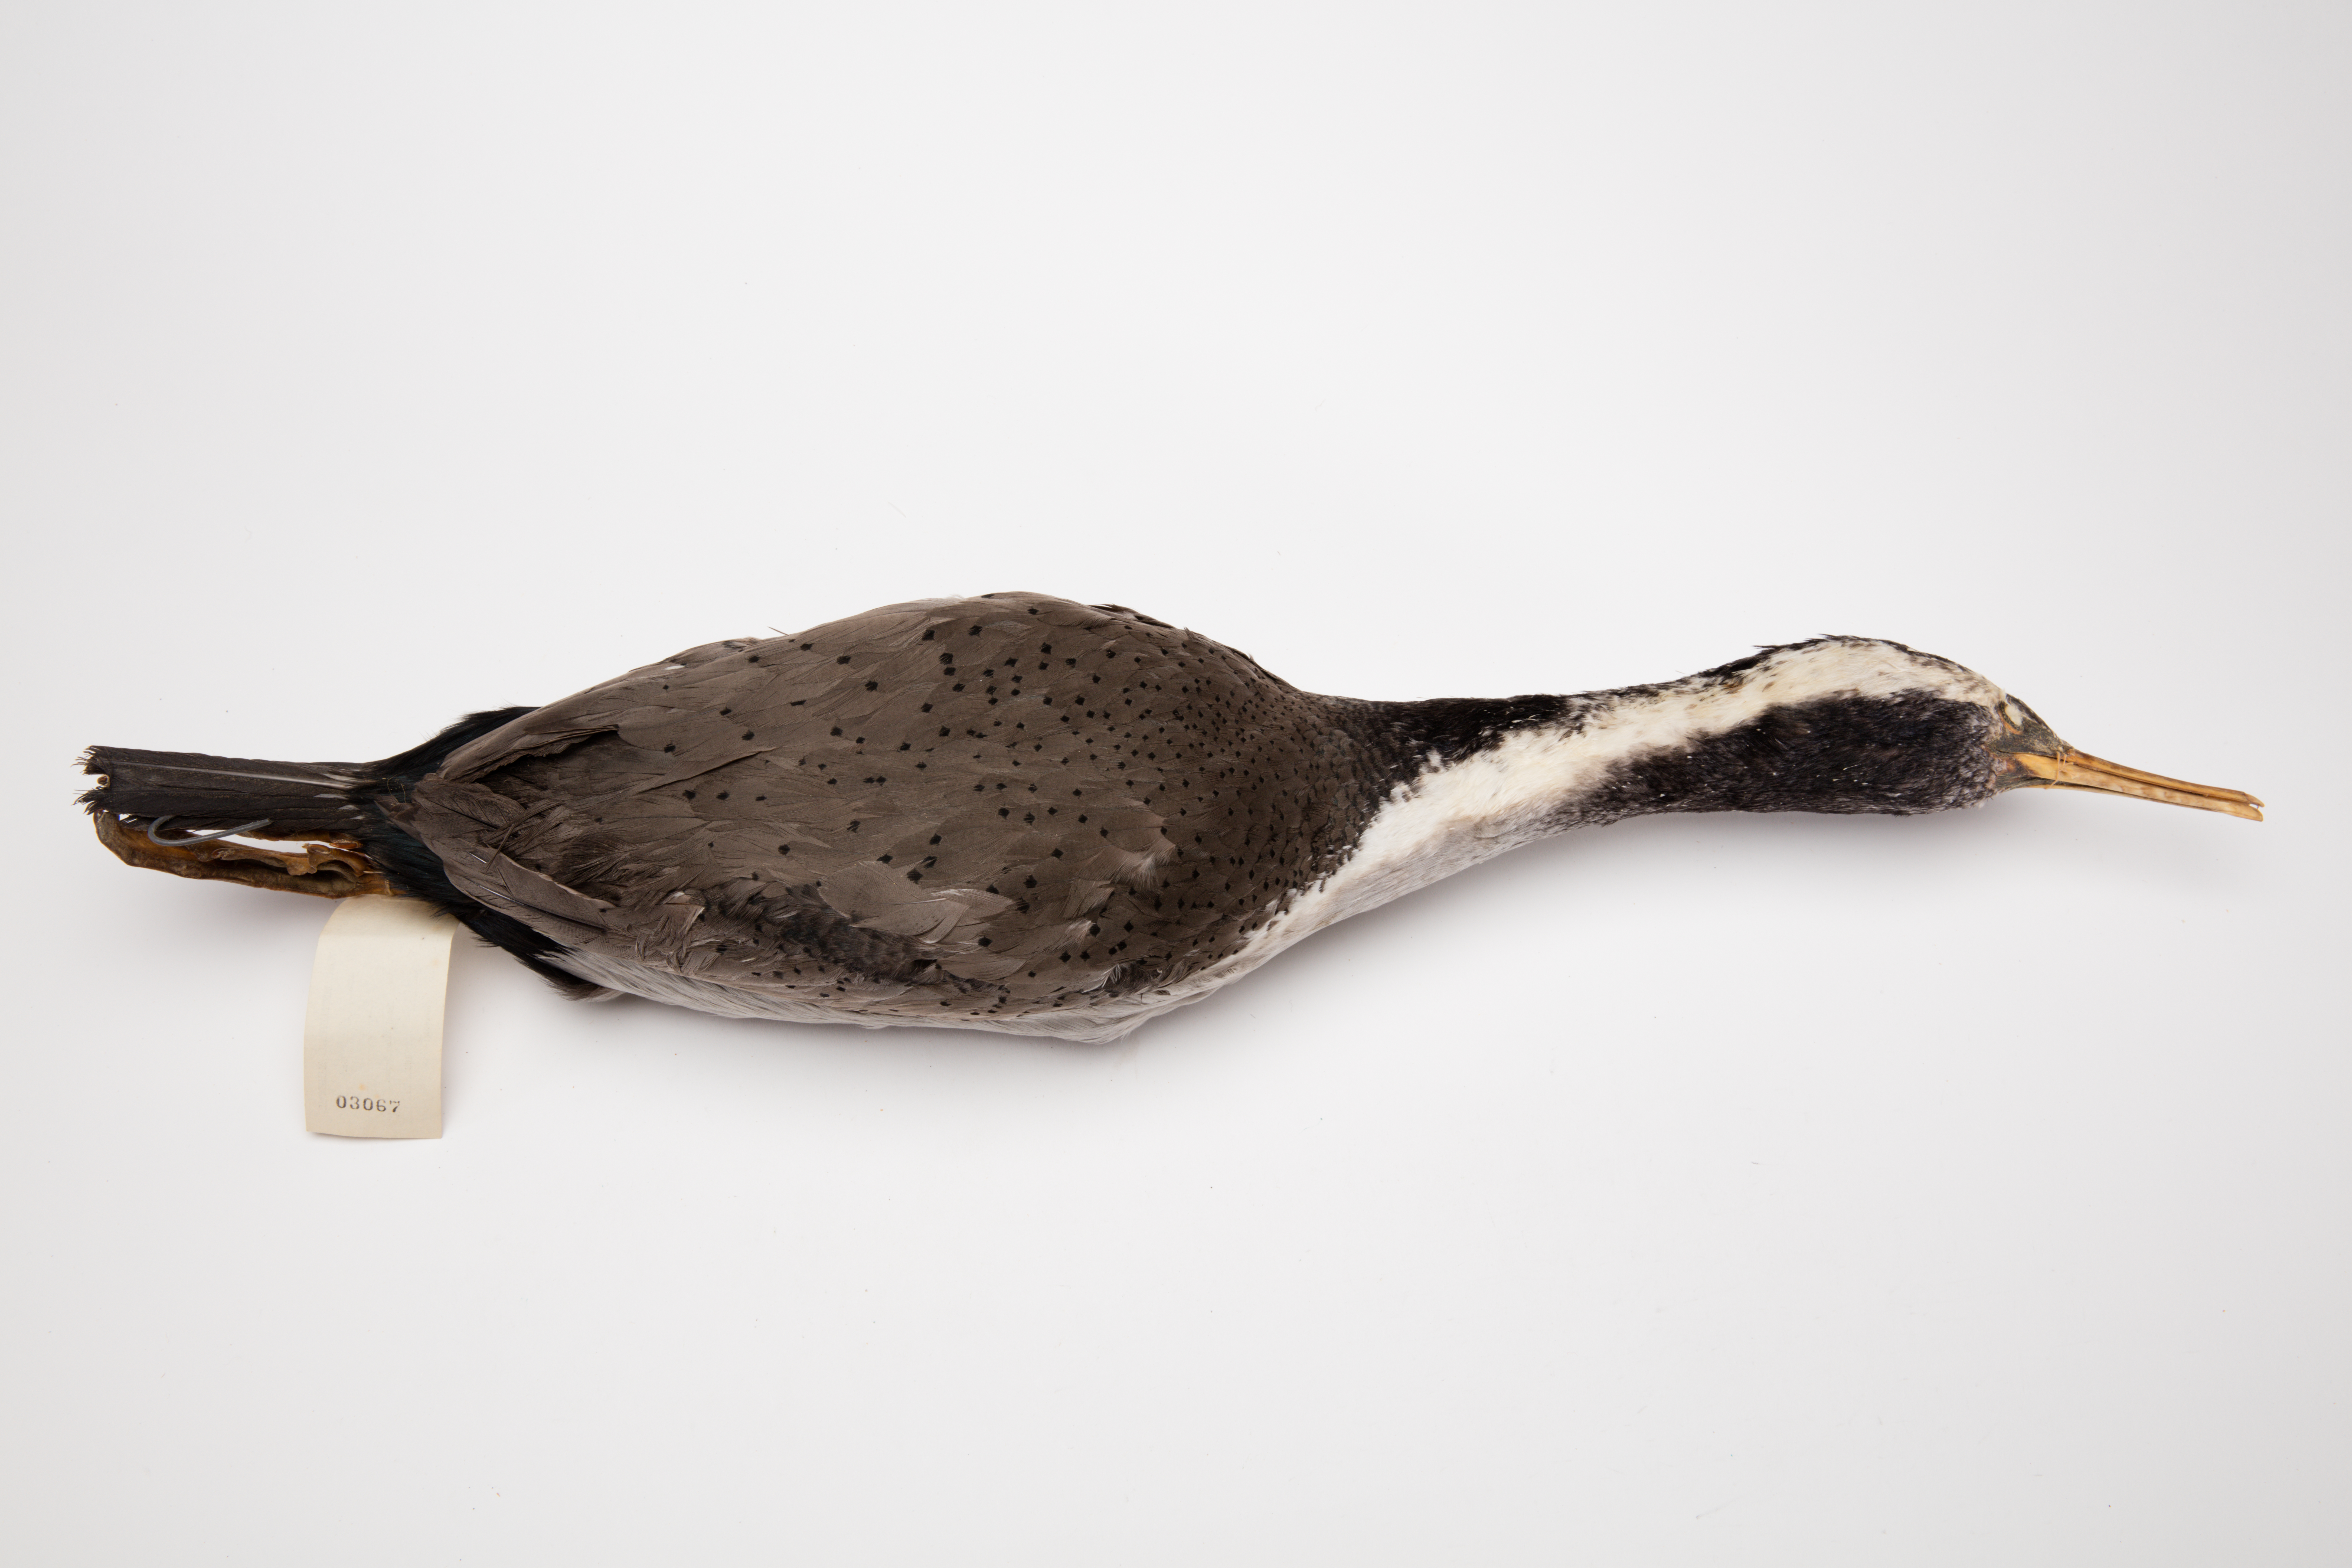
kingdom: Animalia
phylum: Chordata
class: Aves
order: Suliformes
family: Phalacrocoracidae
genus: Phalacrocorax
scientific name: Phalacrocorax punctatus
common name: Spotted shag
